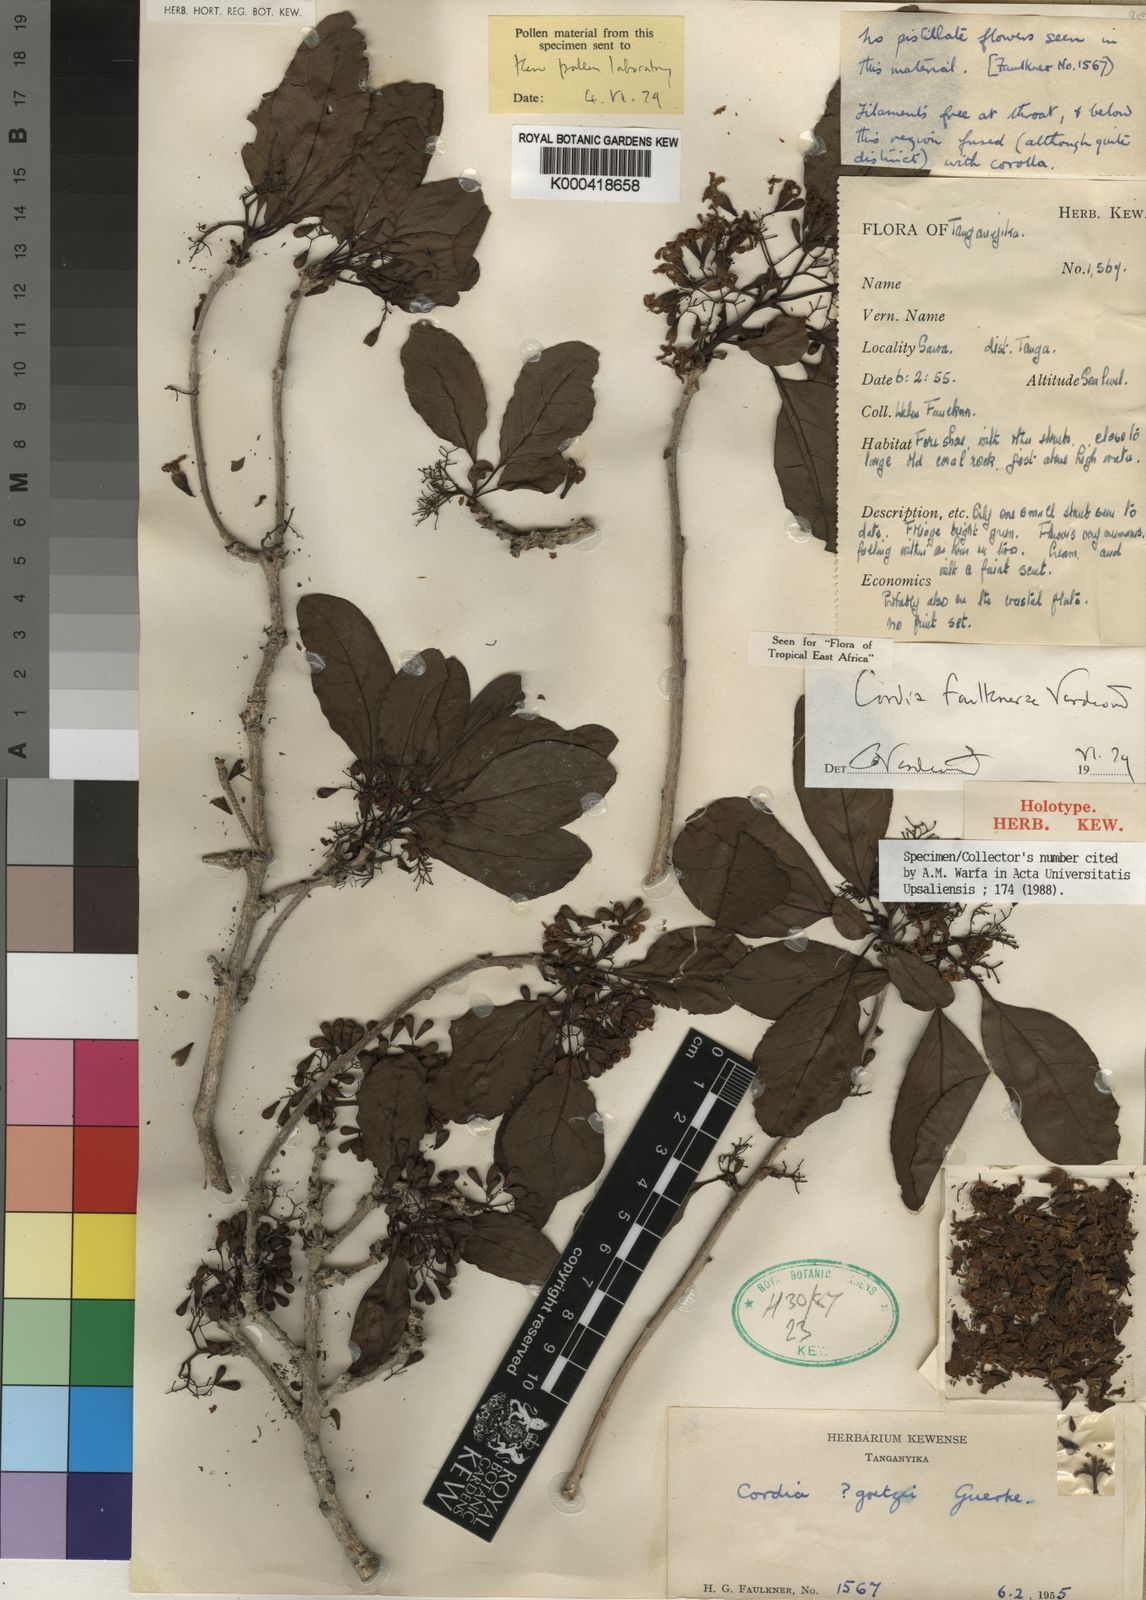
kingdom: Plantae
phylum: Tracheophyta
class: Magnoliopsida
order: Boraginales
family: Cordiaceae
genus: Cordia
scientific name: Cordia faulknerae
